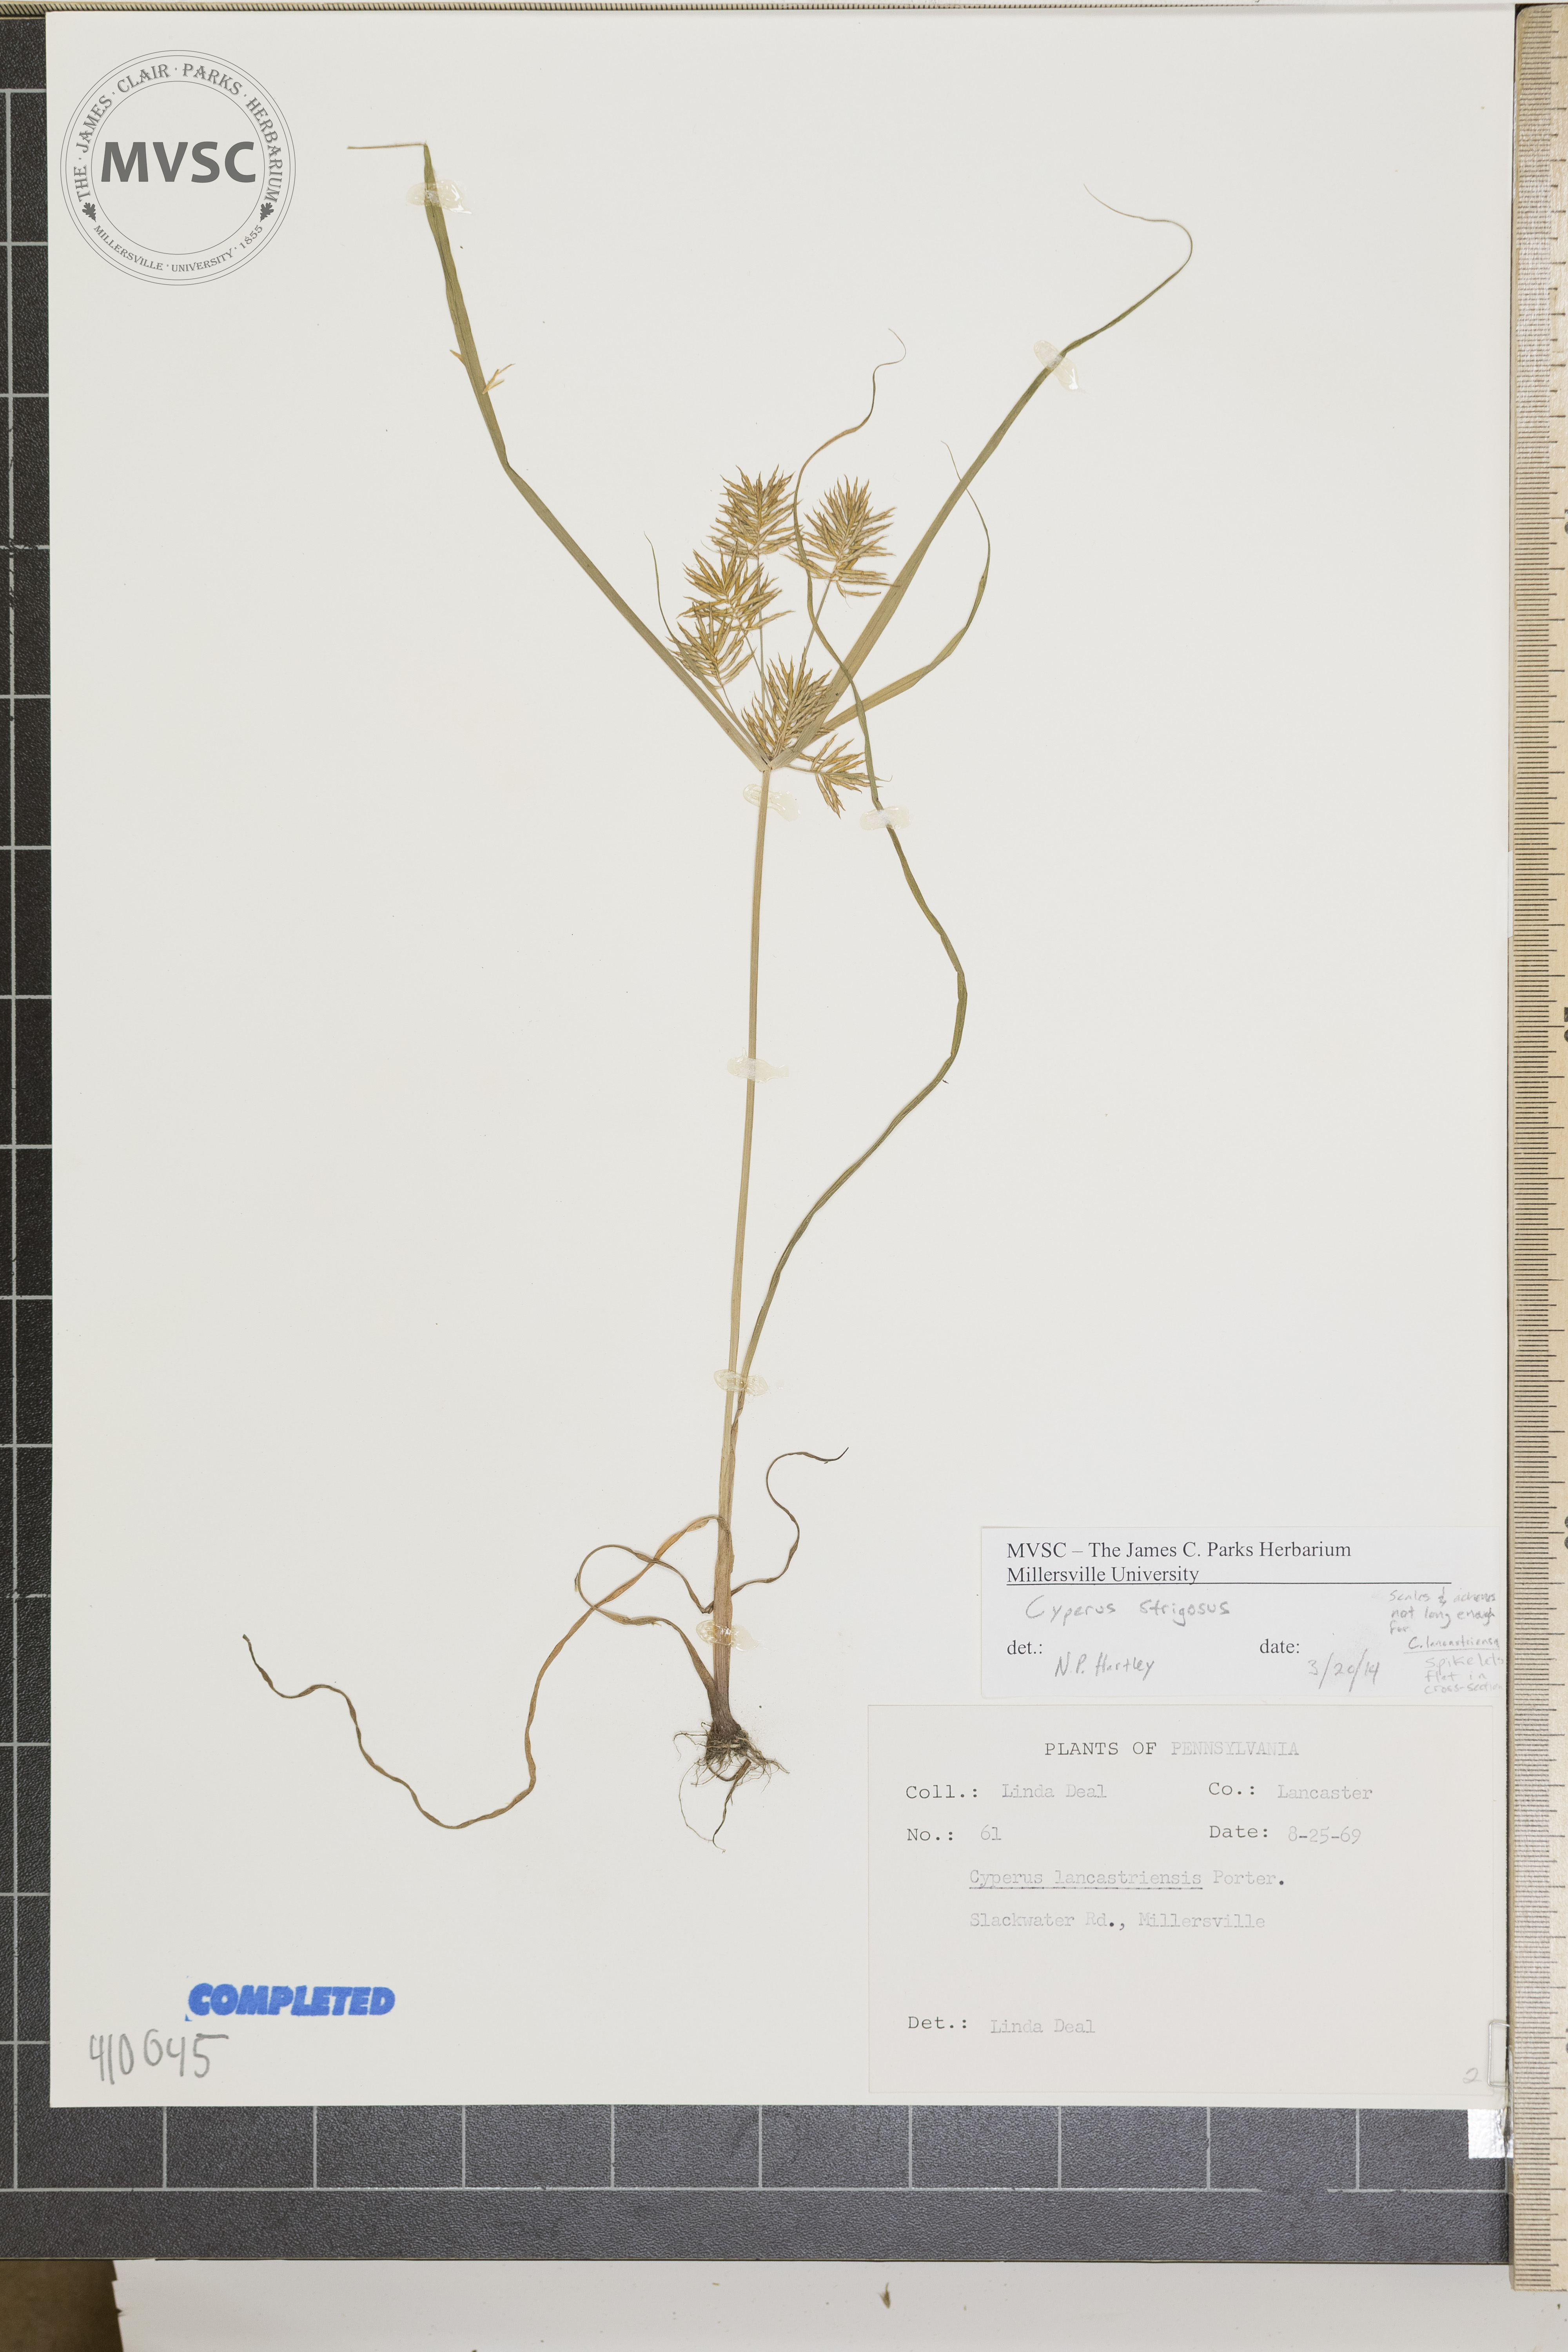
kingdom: Plantae
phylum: Tracheophyta
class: Liliopsida
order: Poales
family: Cyperaceae
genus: Cyperus
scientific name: Cyperus strigosus
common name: straw-colored flatsedge
